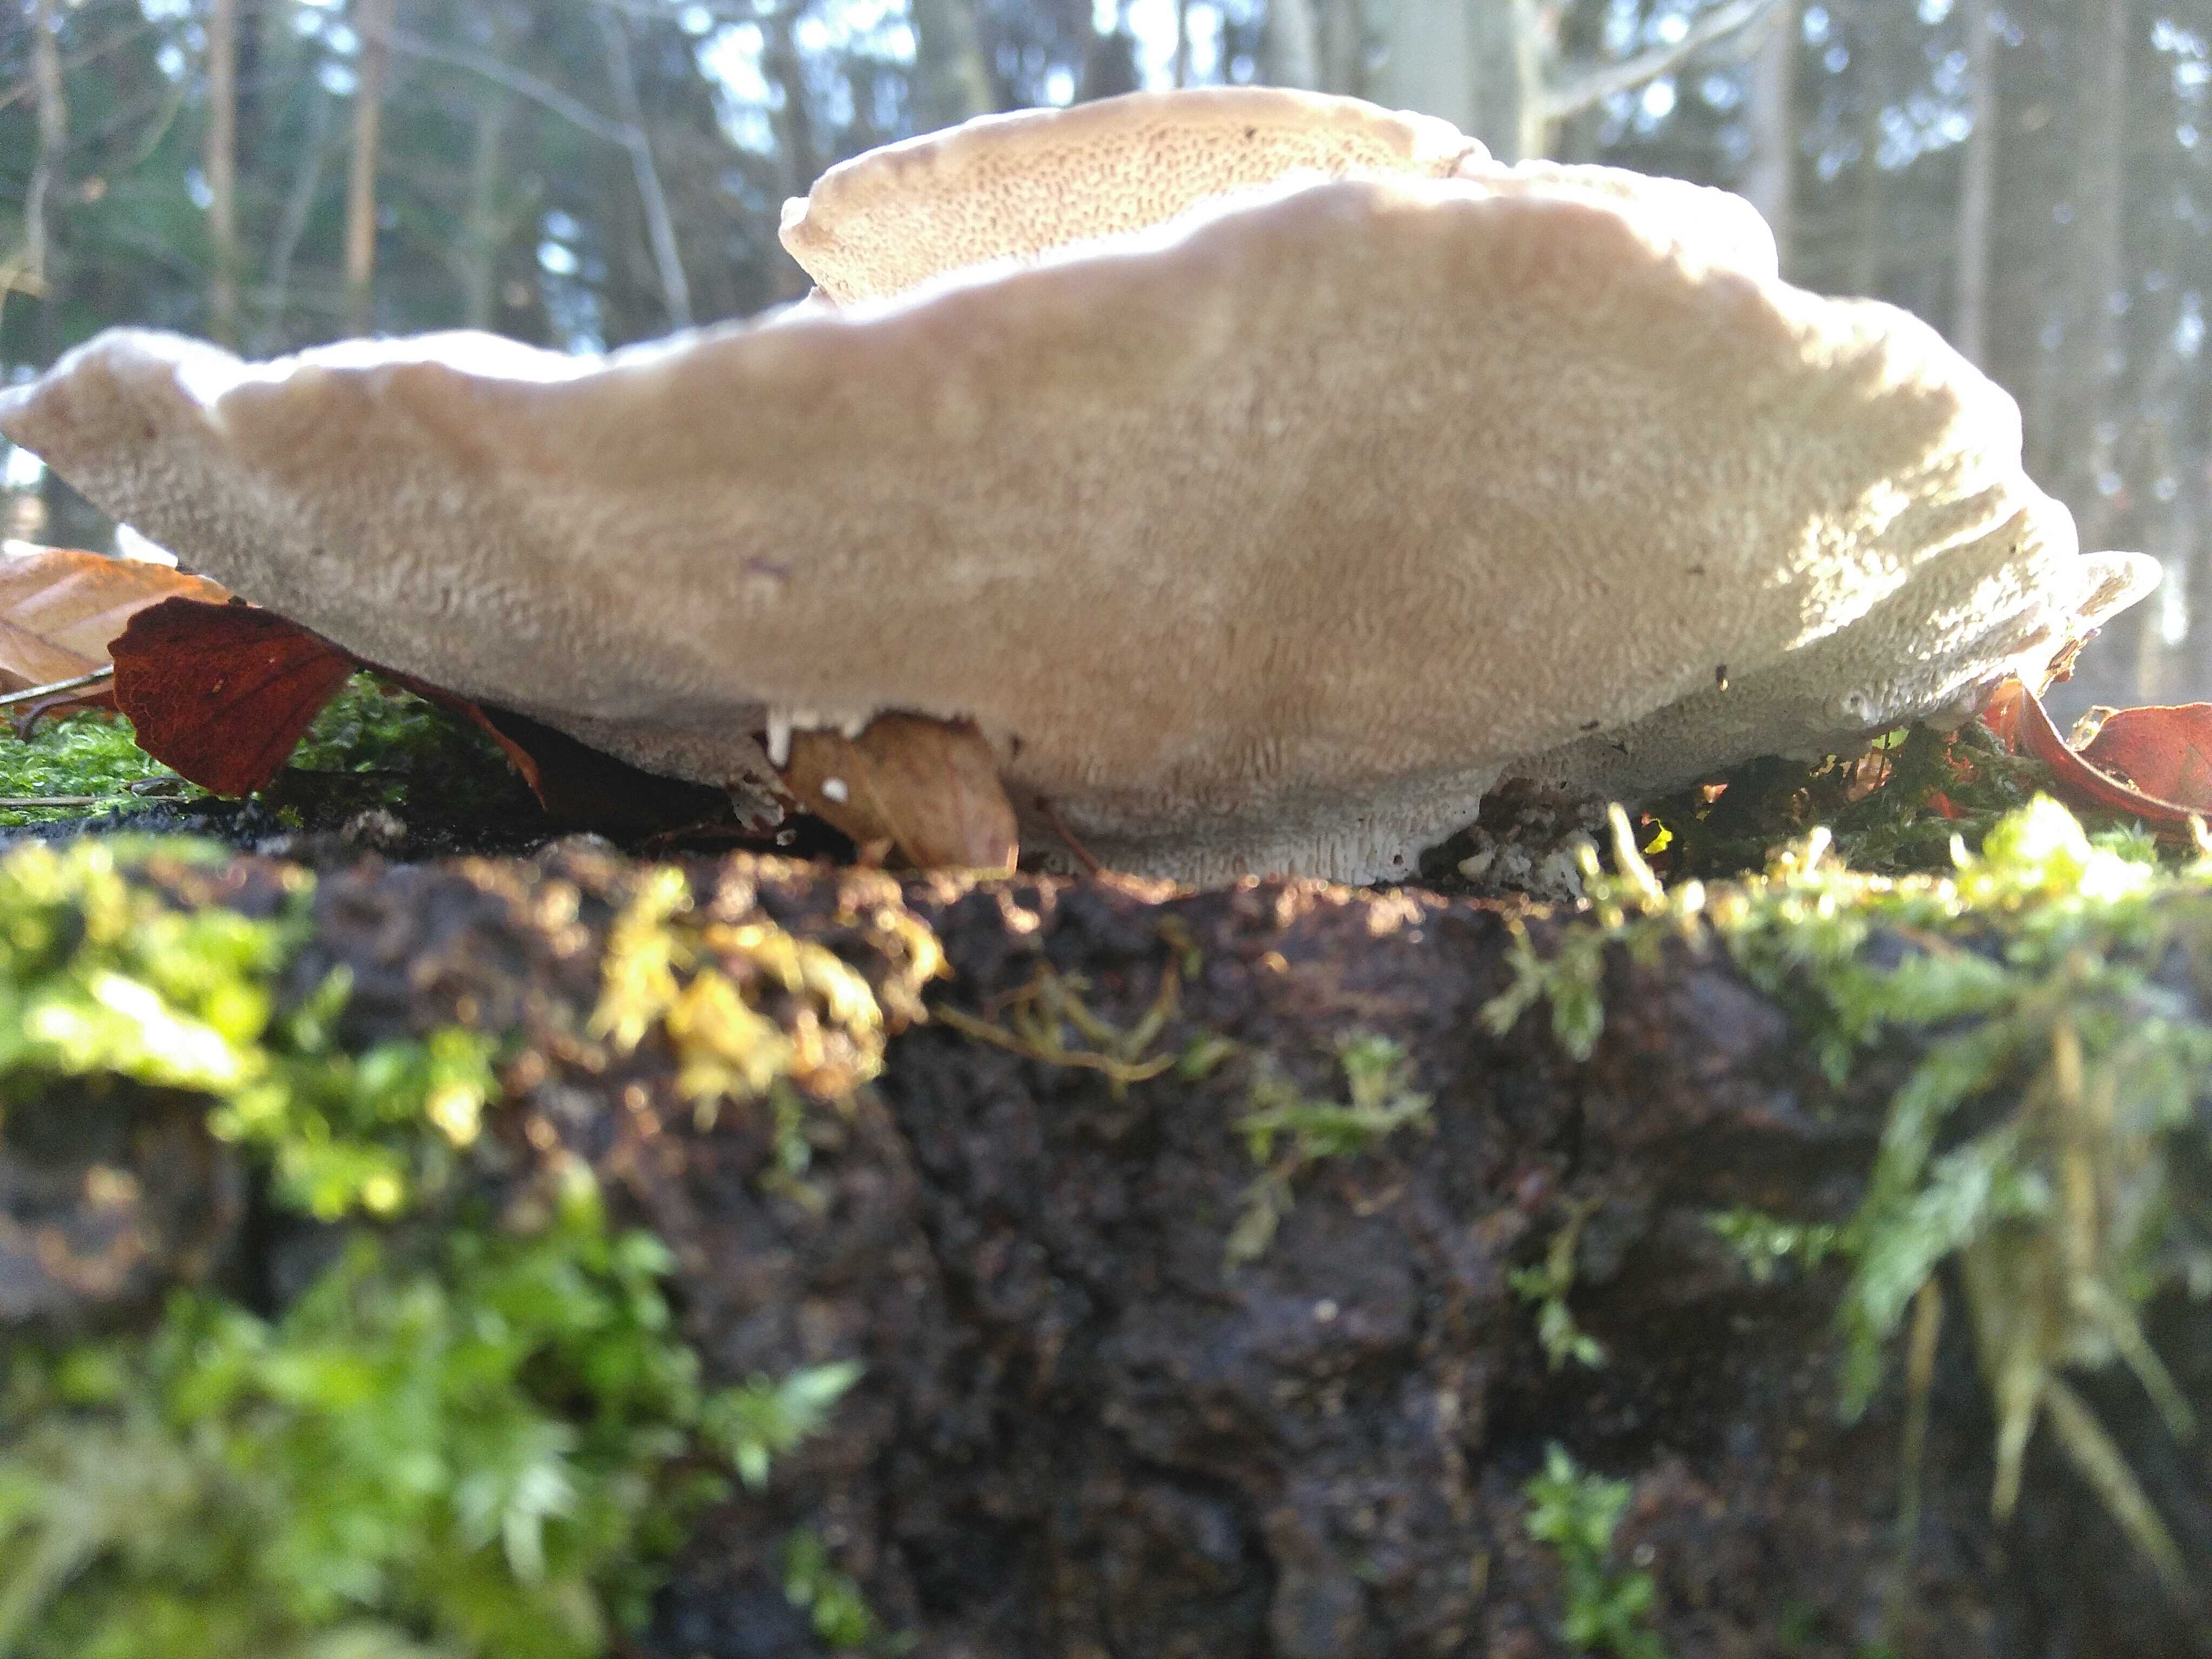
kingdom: Fungi
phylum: Basidiomycota
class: Agaricomycetes
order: Polyporales
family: Polyporaceae
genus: Trametes
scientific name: Trametes gibbosa
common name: puklet læderporesvamp
